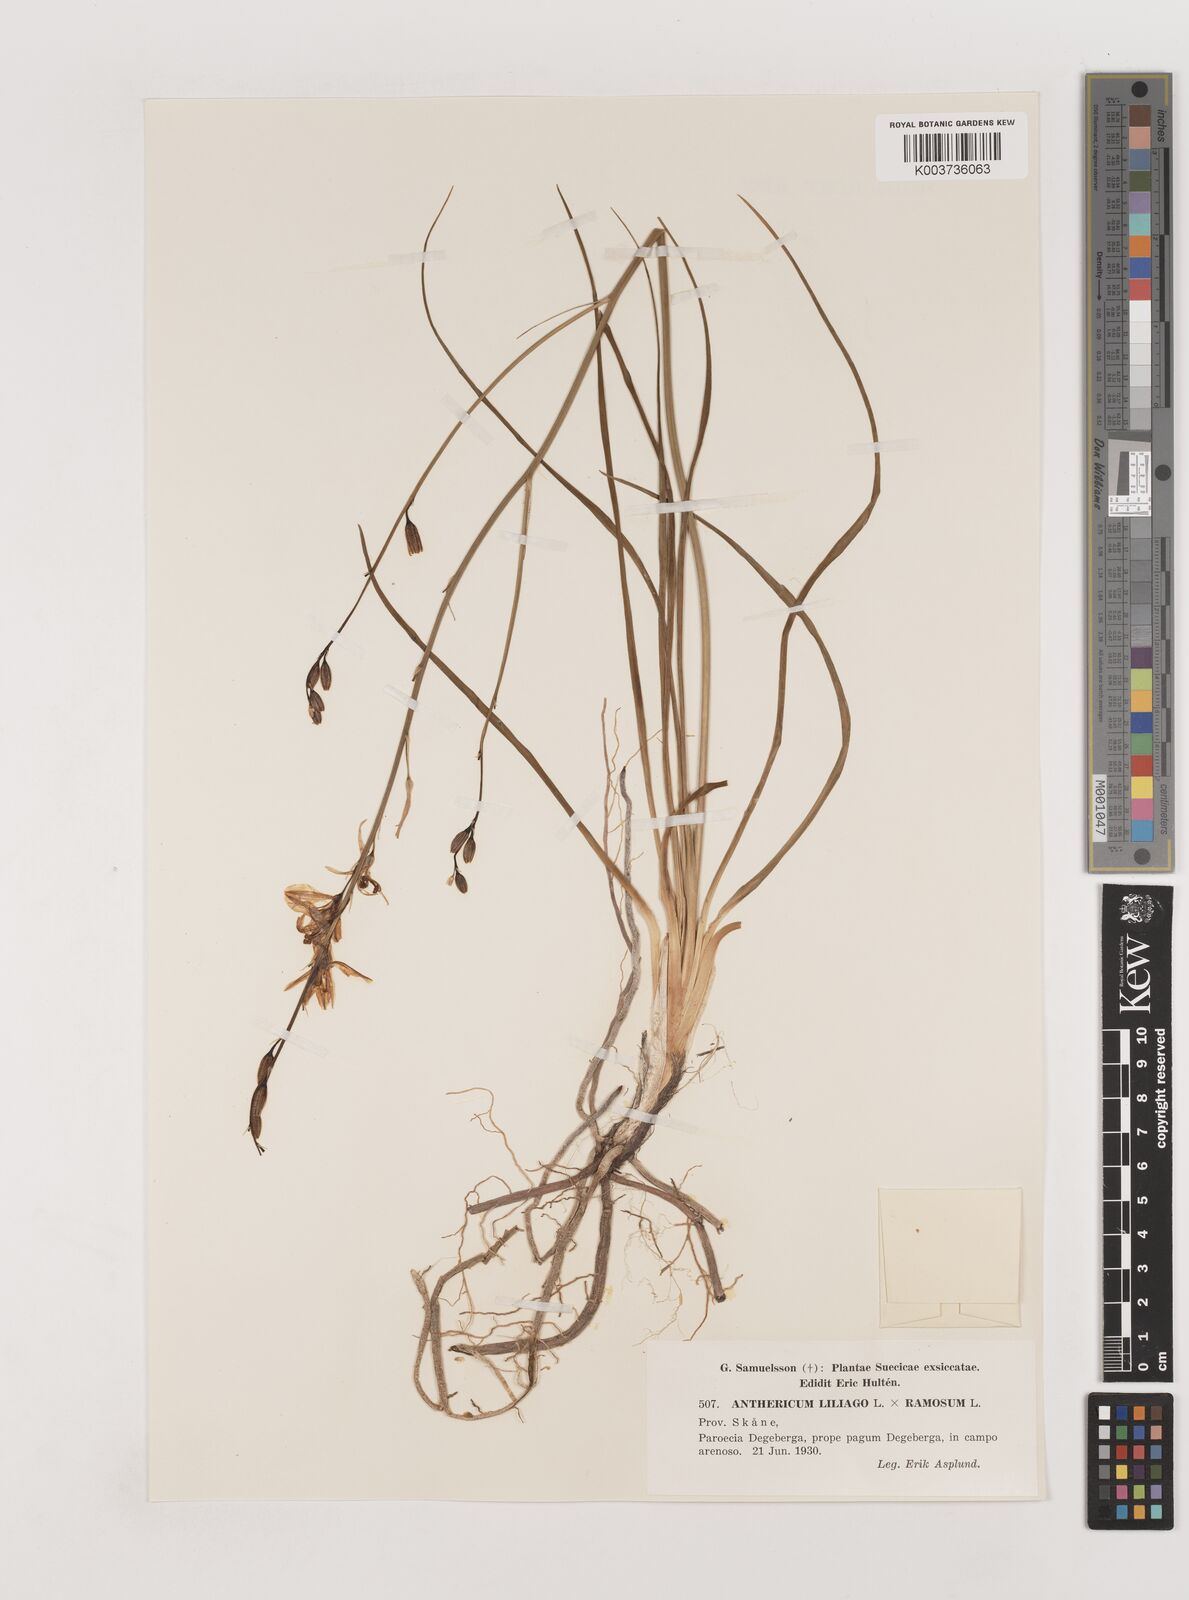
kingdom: Plantae
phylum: Tracheophyta
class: Liliopsida
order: Asparagales
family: Asparagaceae
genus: Anthericum
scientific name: Anthericum liliago
